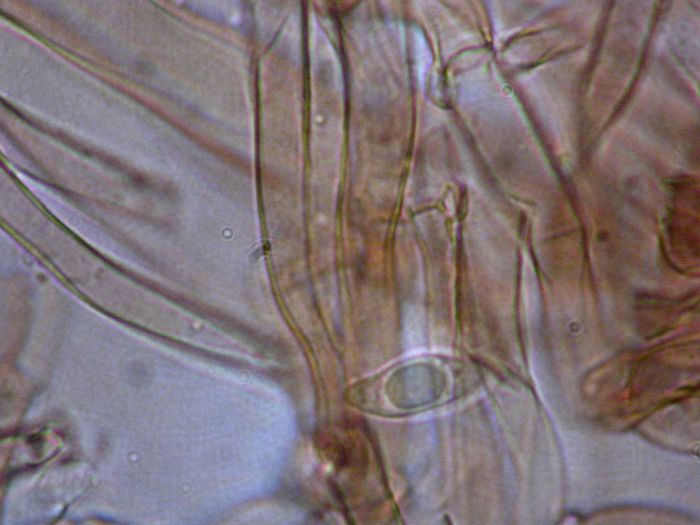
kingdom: Fungi
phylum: Basidiomycota
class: Agaricomycetes
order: Agaricales
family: Agaricaceae
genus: Lepiota
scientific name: Lepiota
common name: parasolhat
